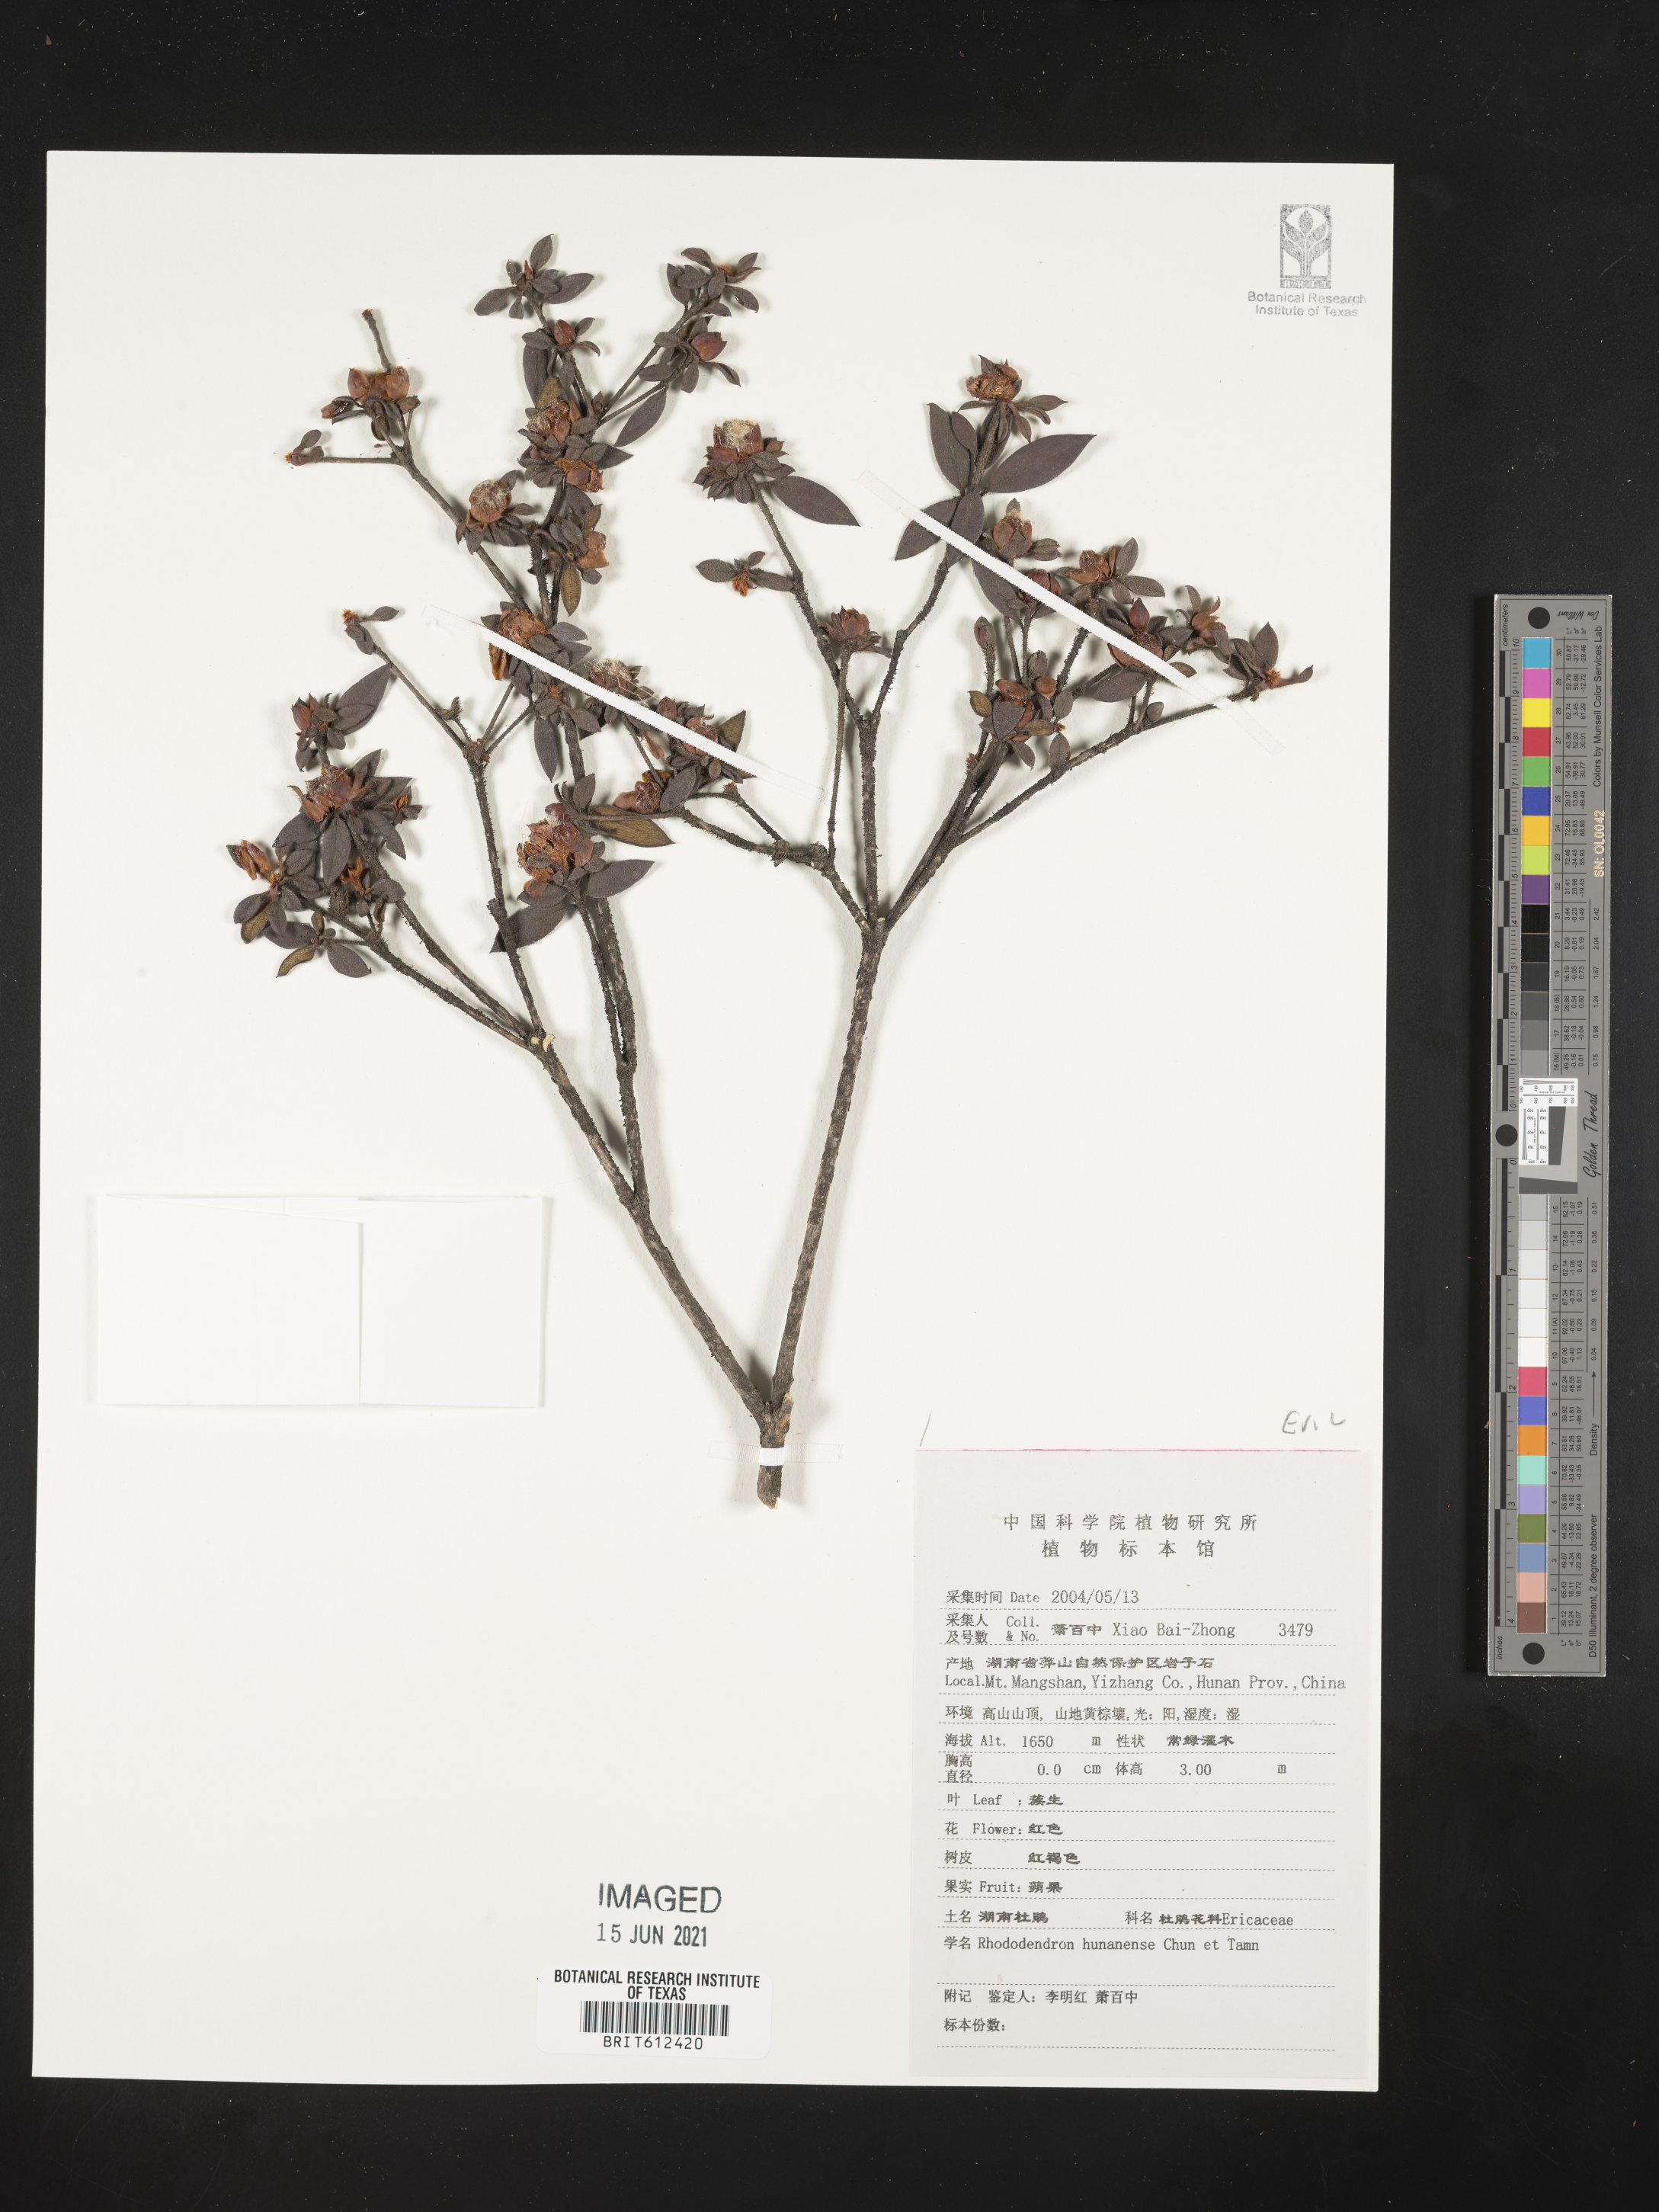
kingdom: Plantae
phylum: Tracheophyta
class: Magnoliopsida
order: Ericales
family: Ericaceae
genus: Rhododendron
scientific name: Rhododendron hunanense
